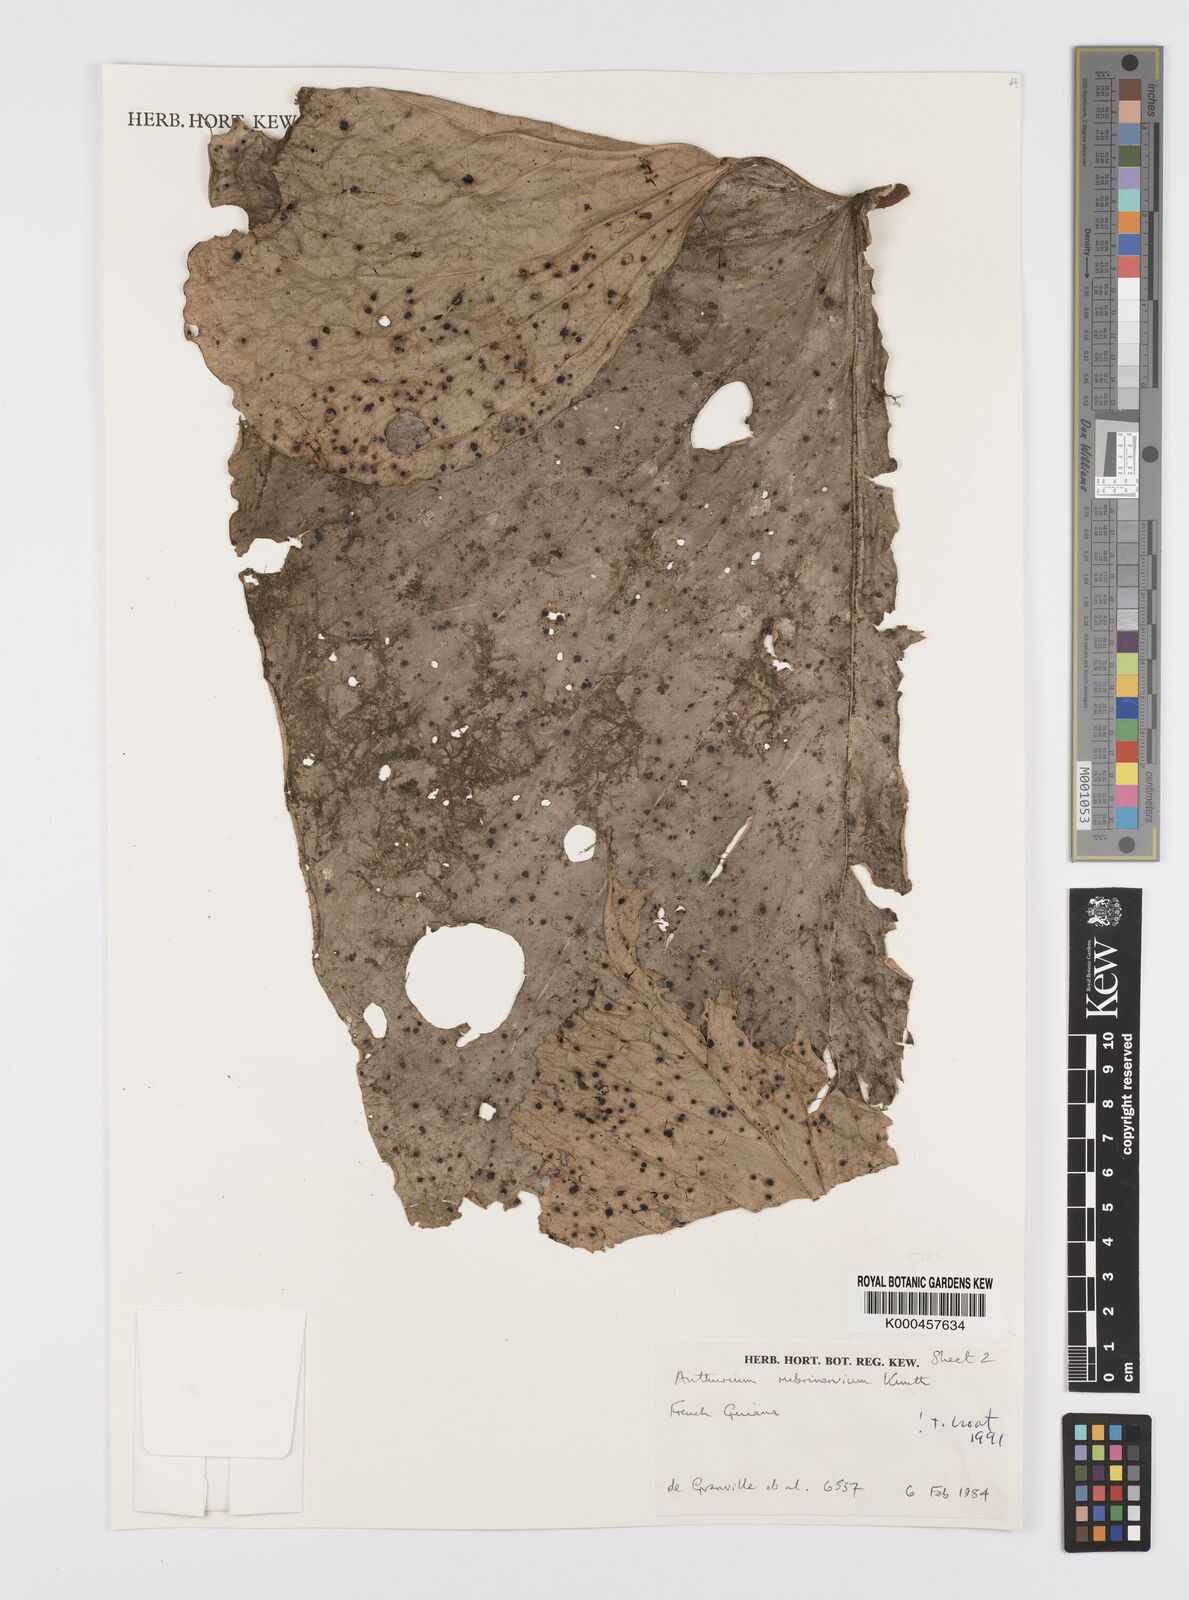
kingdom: Plantae
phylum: Tracheophyta
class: Liliopsida
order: Alismatales
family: Araceae
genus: Anthurium
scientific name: Anthurium sagittatum
